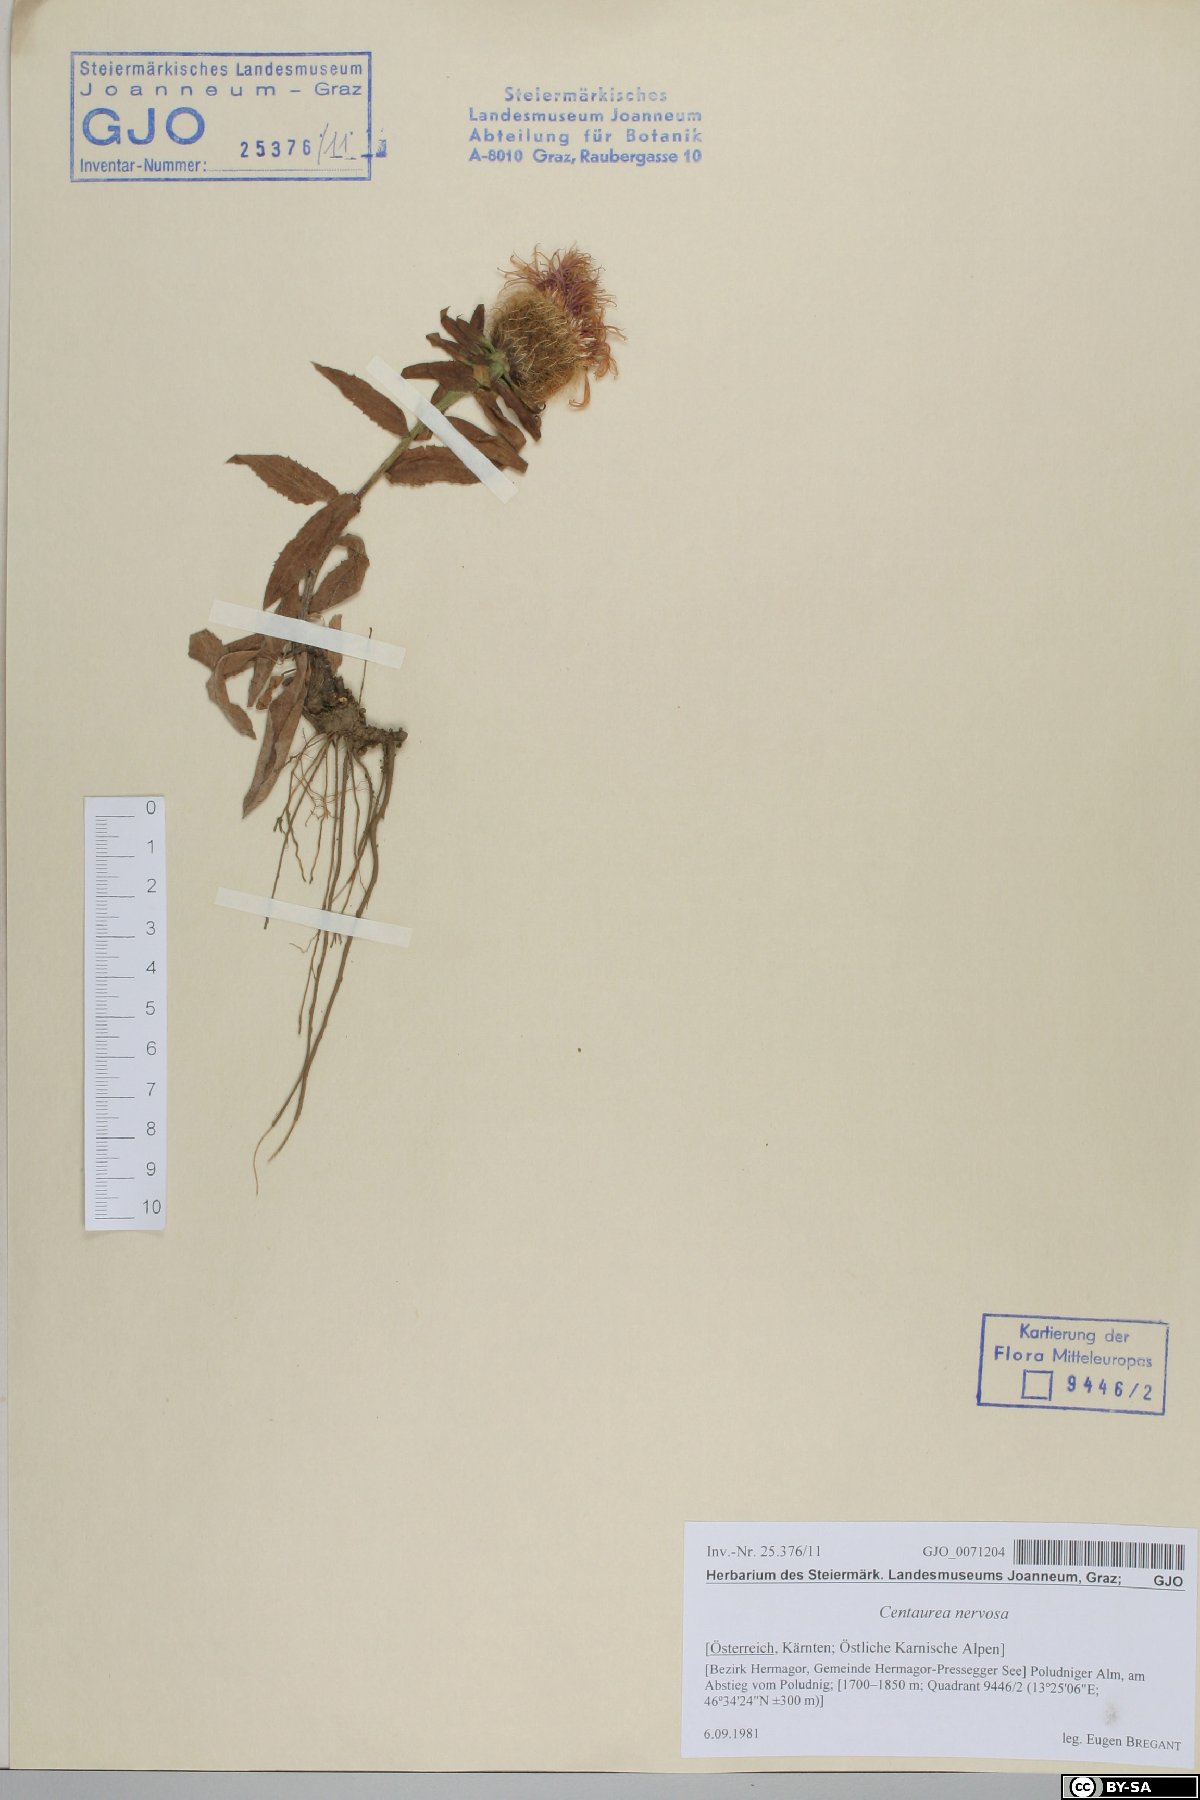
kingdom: Plantae
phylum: Tracheophyta
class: Magnoliopsida
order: Asterales
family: Asteraceae
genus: Centaurea
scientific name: Centaurea nervosa
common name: Singleflower knapweed
